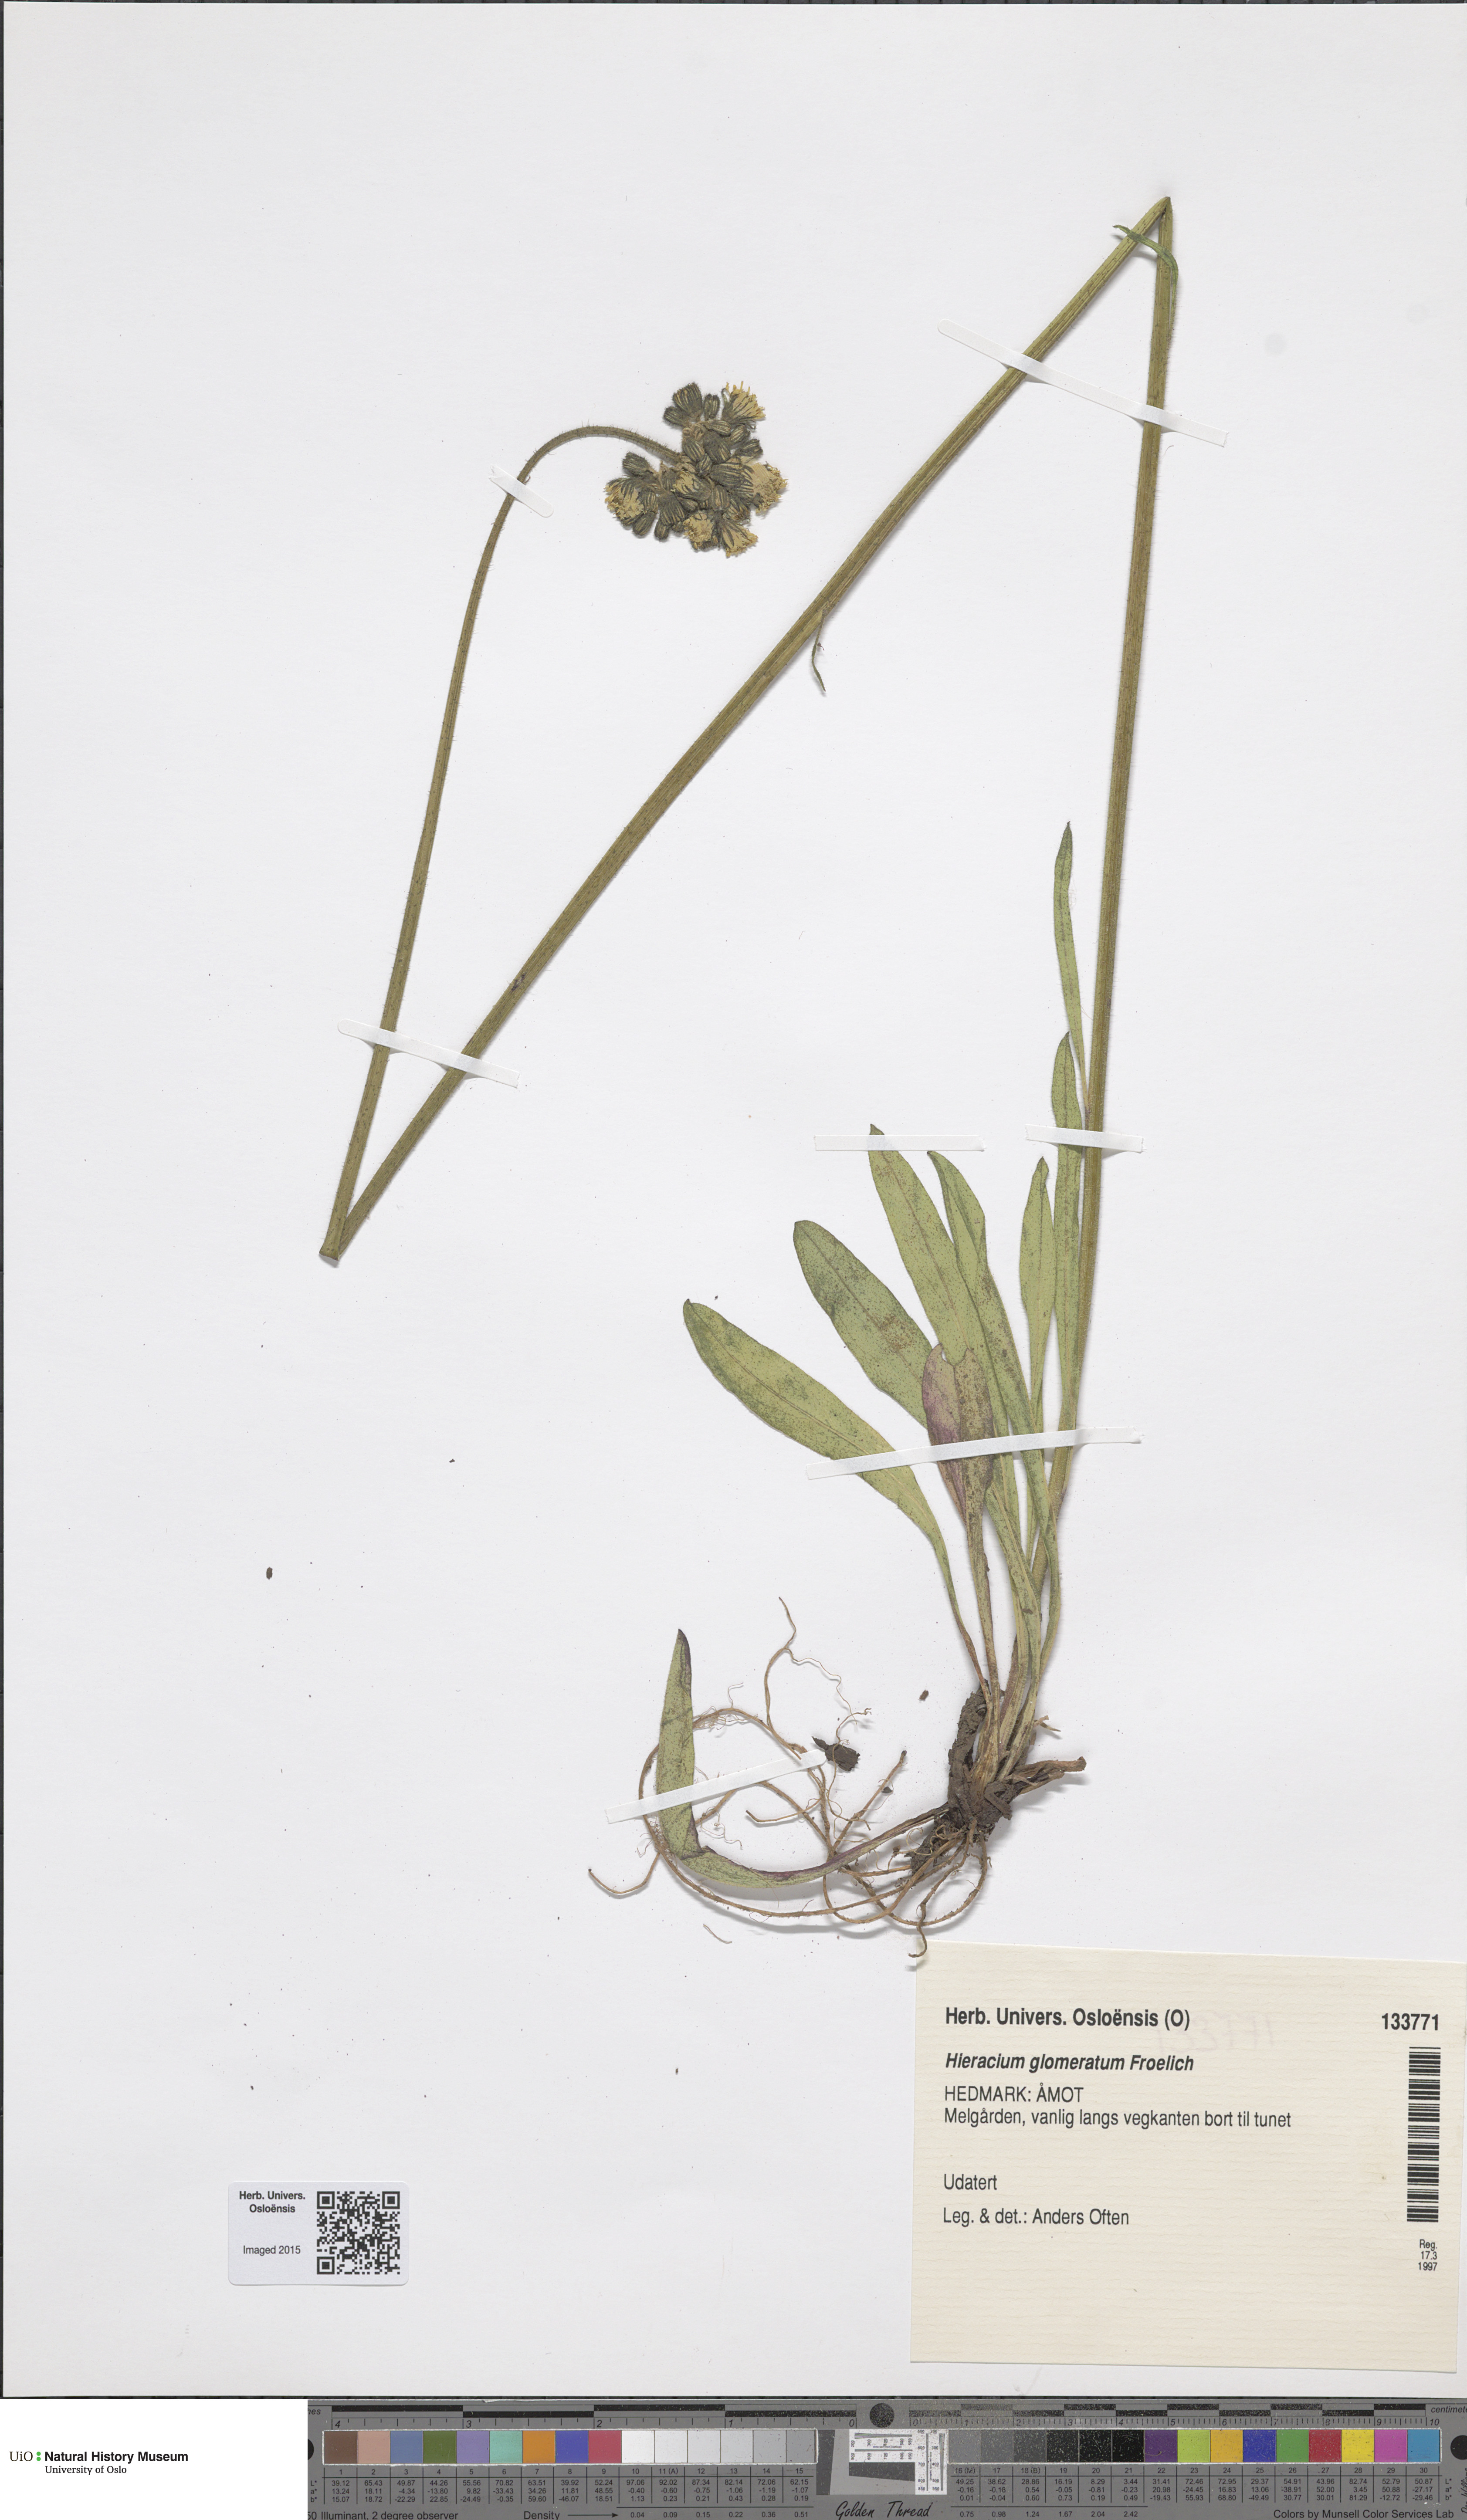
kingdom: Plantae
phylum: Tracheophyta
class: Magnoliopsida
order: Asterales
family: Asteraceae
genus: Pilosella
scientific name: Pilosella glomerata
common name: Queen devil hawkweed
